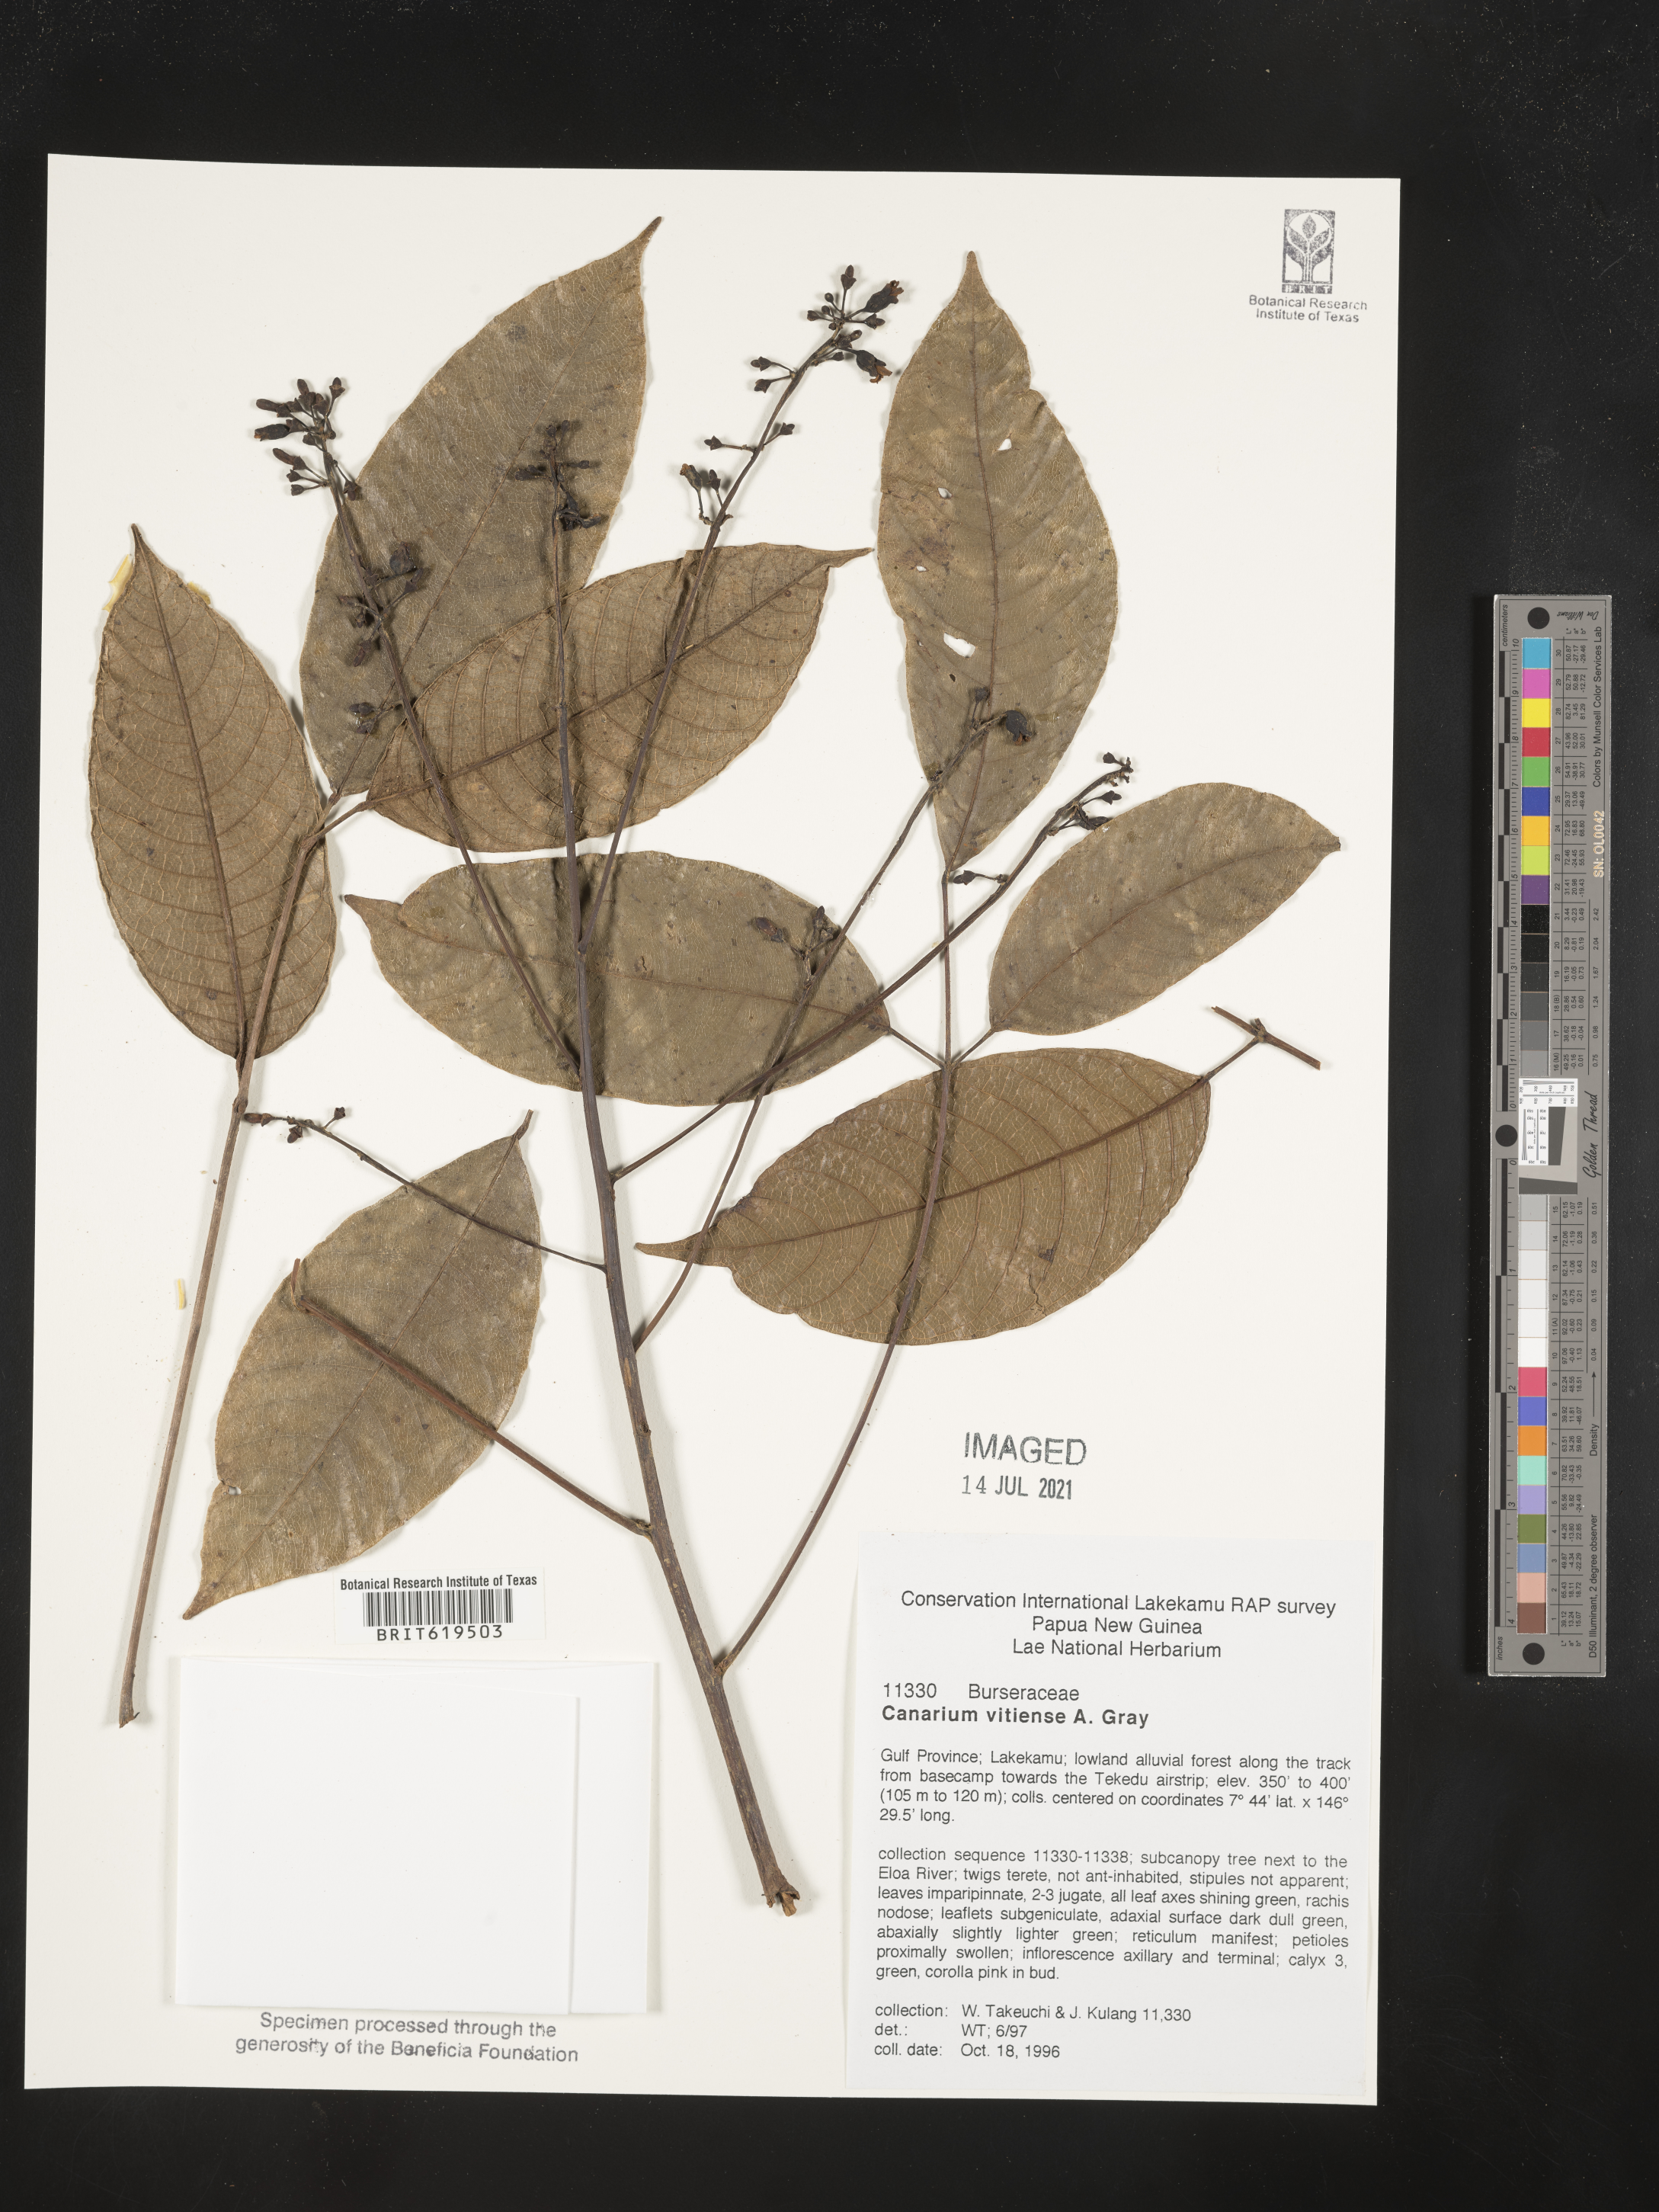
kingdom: Plantae
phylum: Tracheophyta
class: Magnoliopsida
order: Sapindales
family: Burseraceae
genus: Canarium
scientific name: Canarium vitiense
